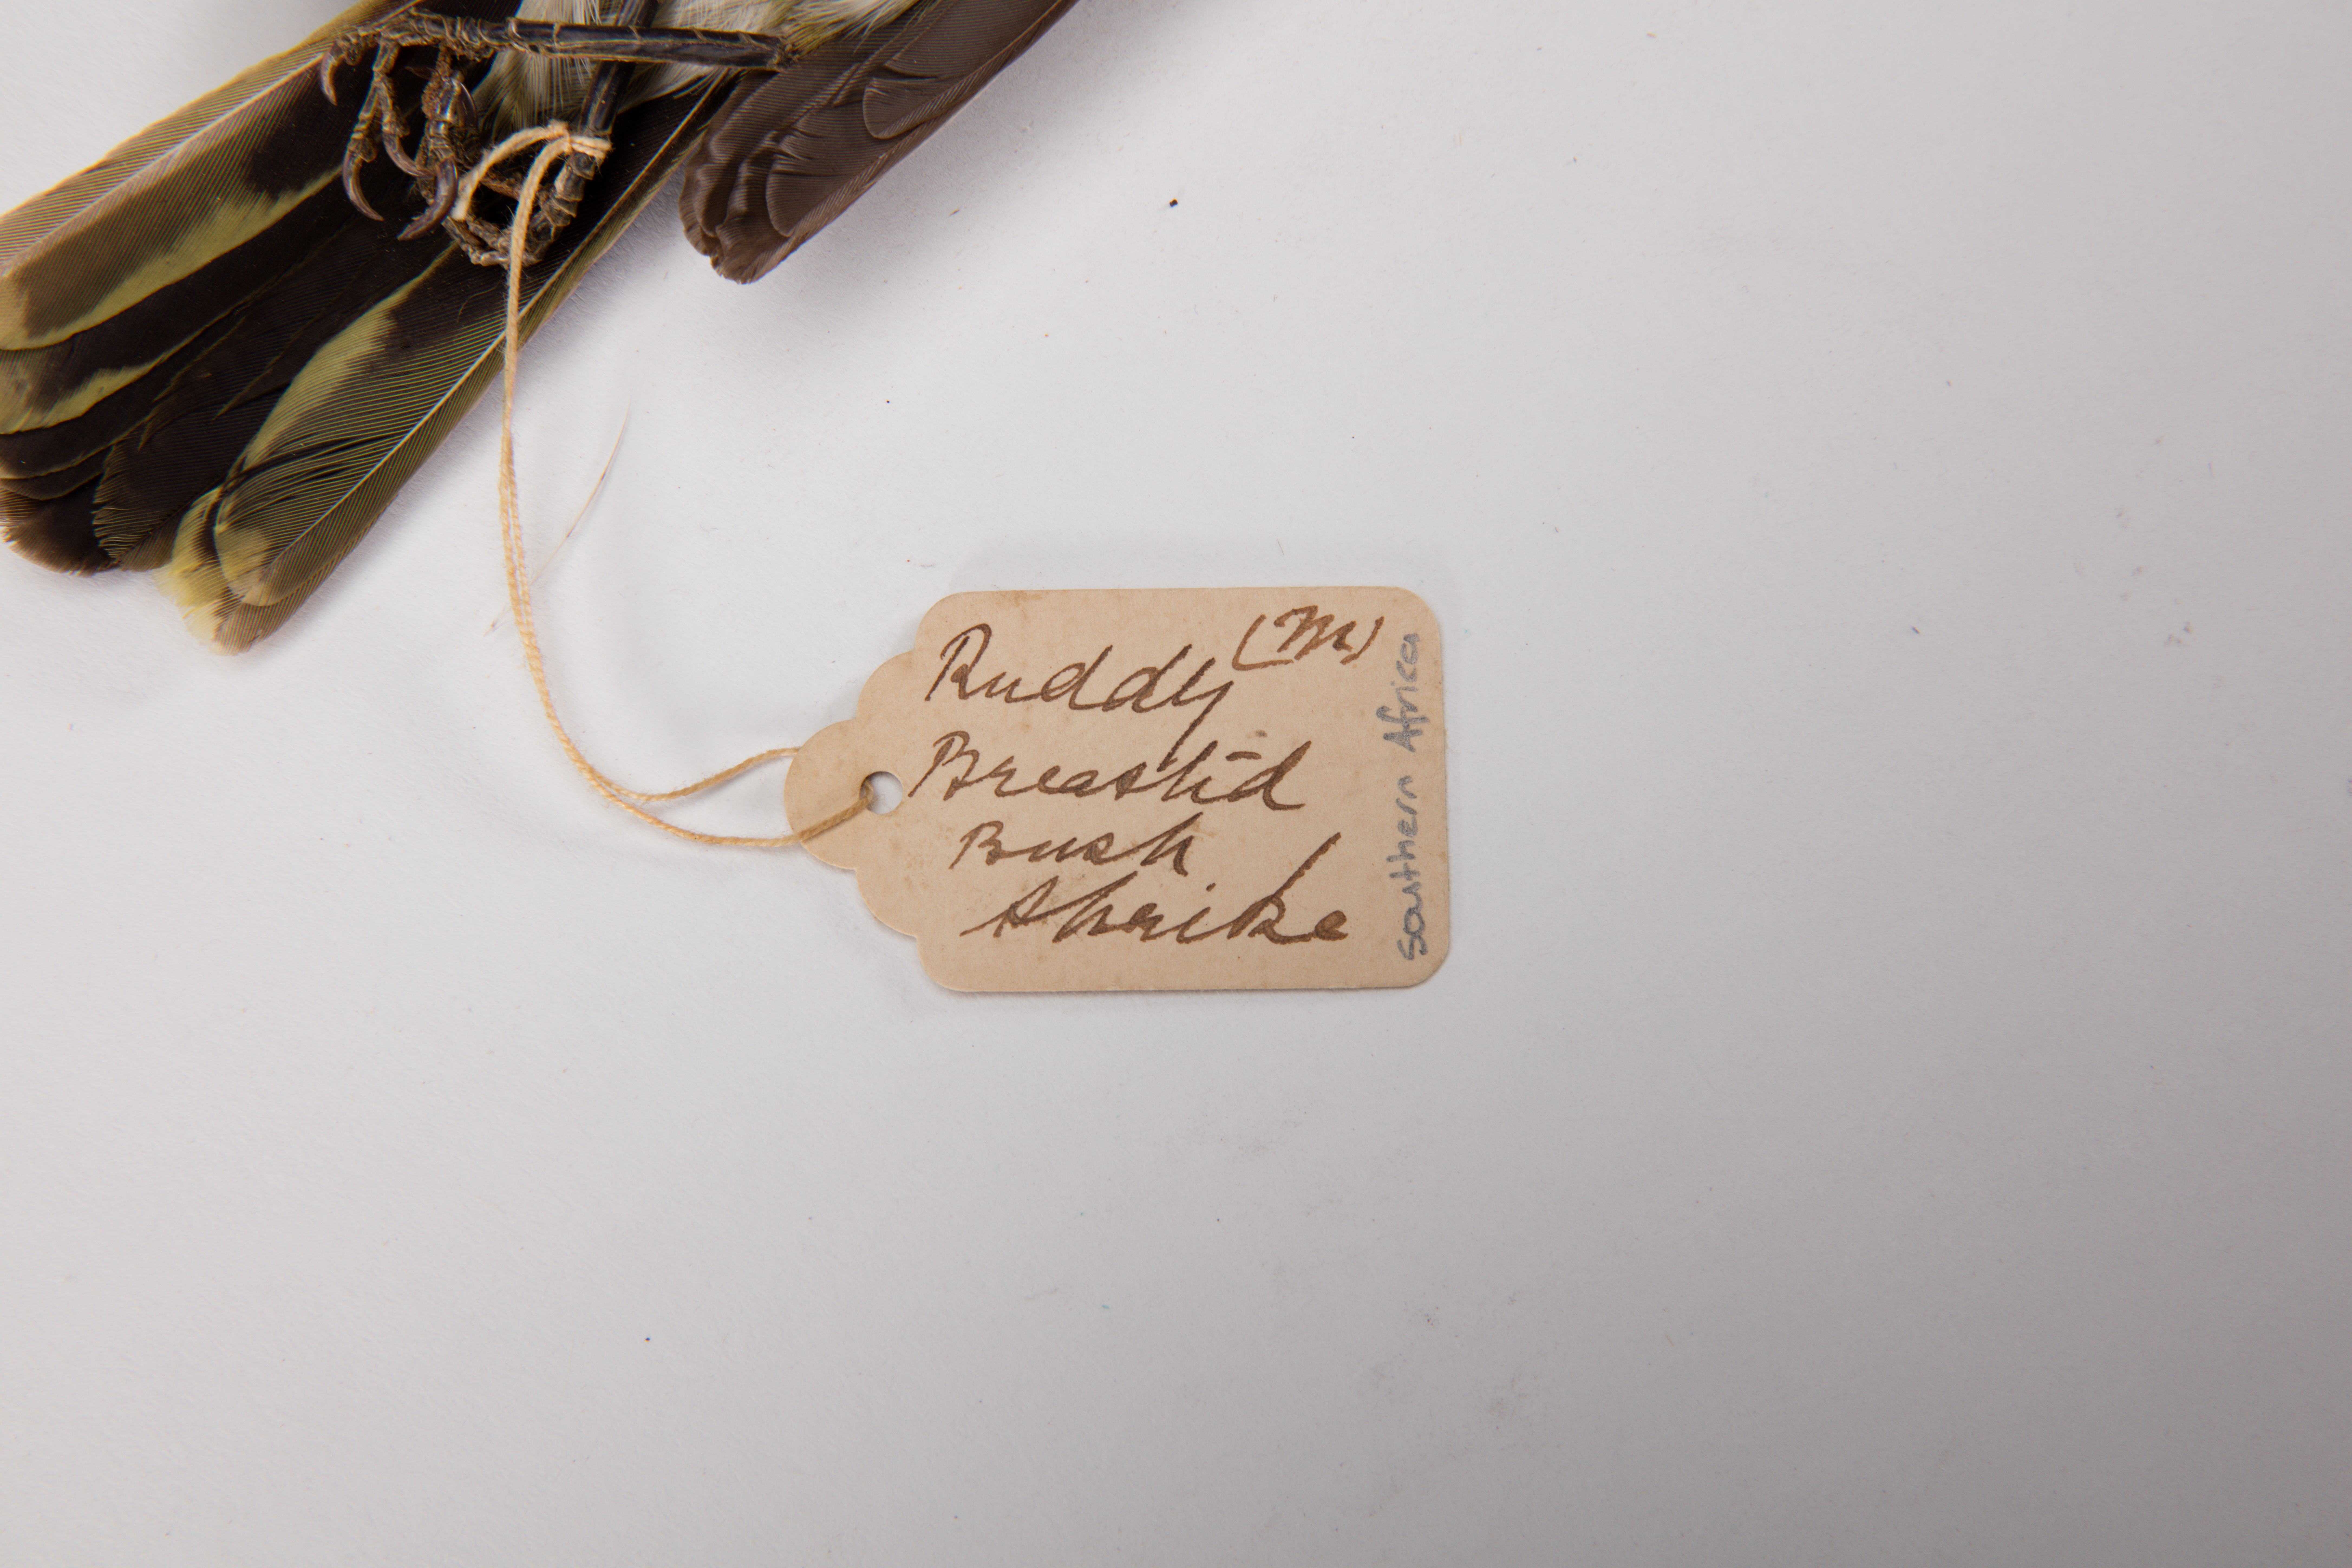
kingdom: Animalia
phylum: Chordata
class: Aves
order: Passeriformes
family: Malaconotidae
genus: Chlorophoneus
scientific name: Chlorophoneus olivaceus
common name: Olive bushshrike
